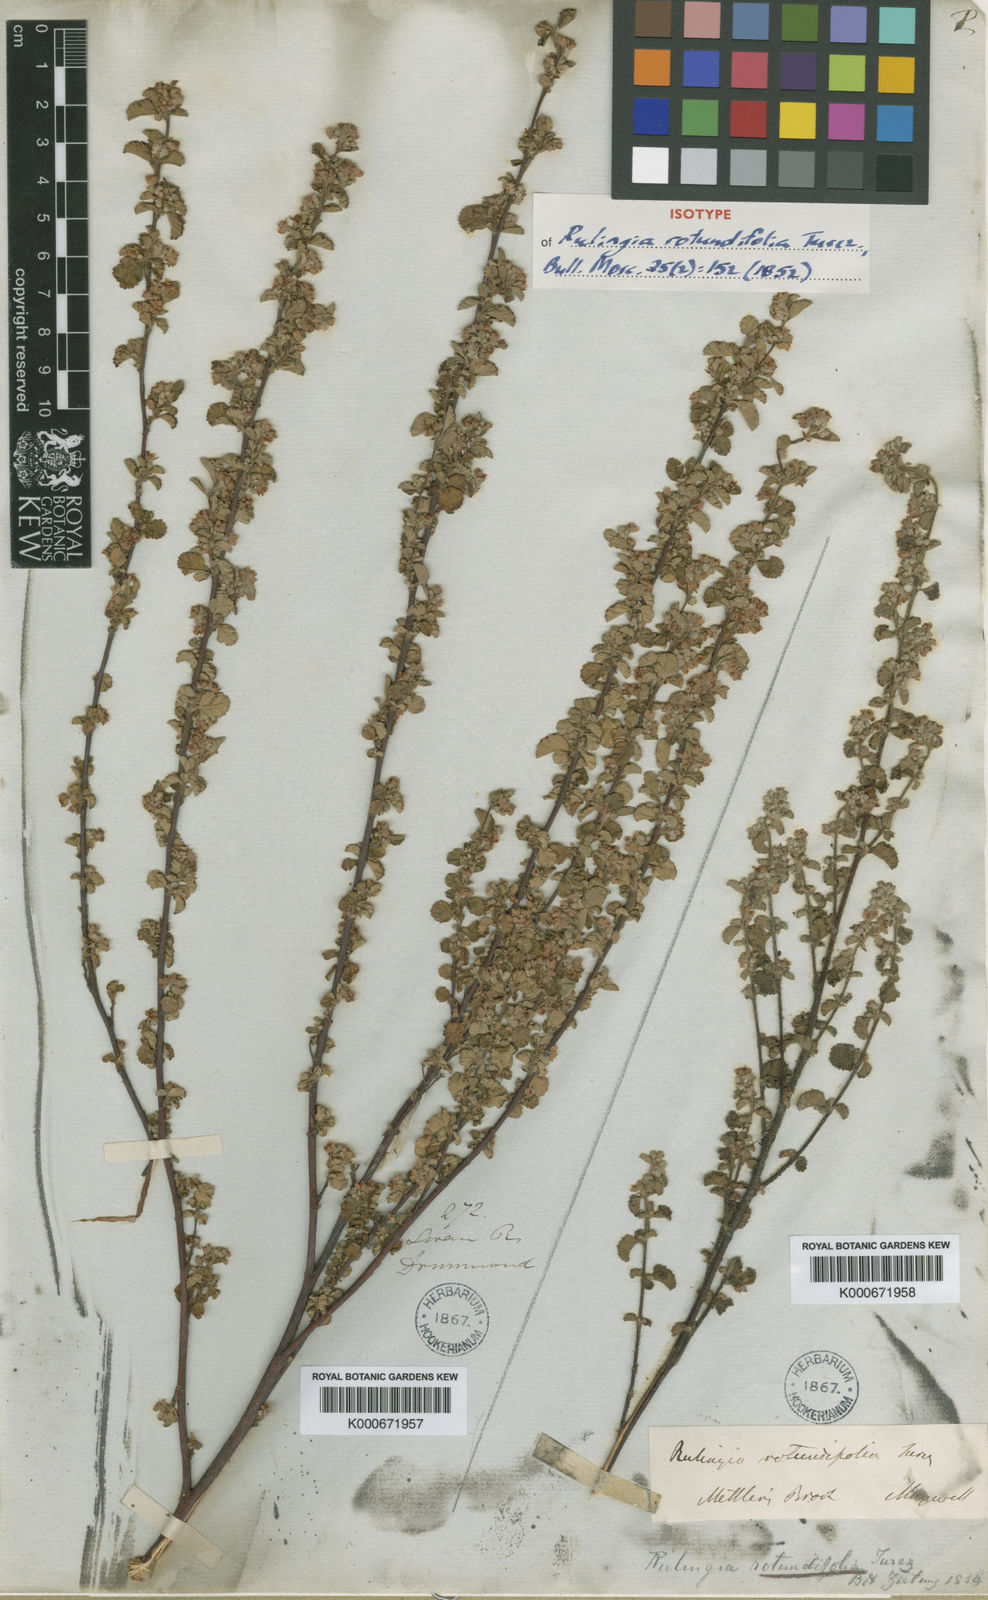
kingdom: Plantae
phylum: Tracheophyta
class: Magnoliopsida
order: Malvales
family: Malvaceae
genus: Commersonia
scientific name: Commersonia rotundifolia
